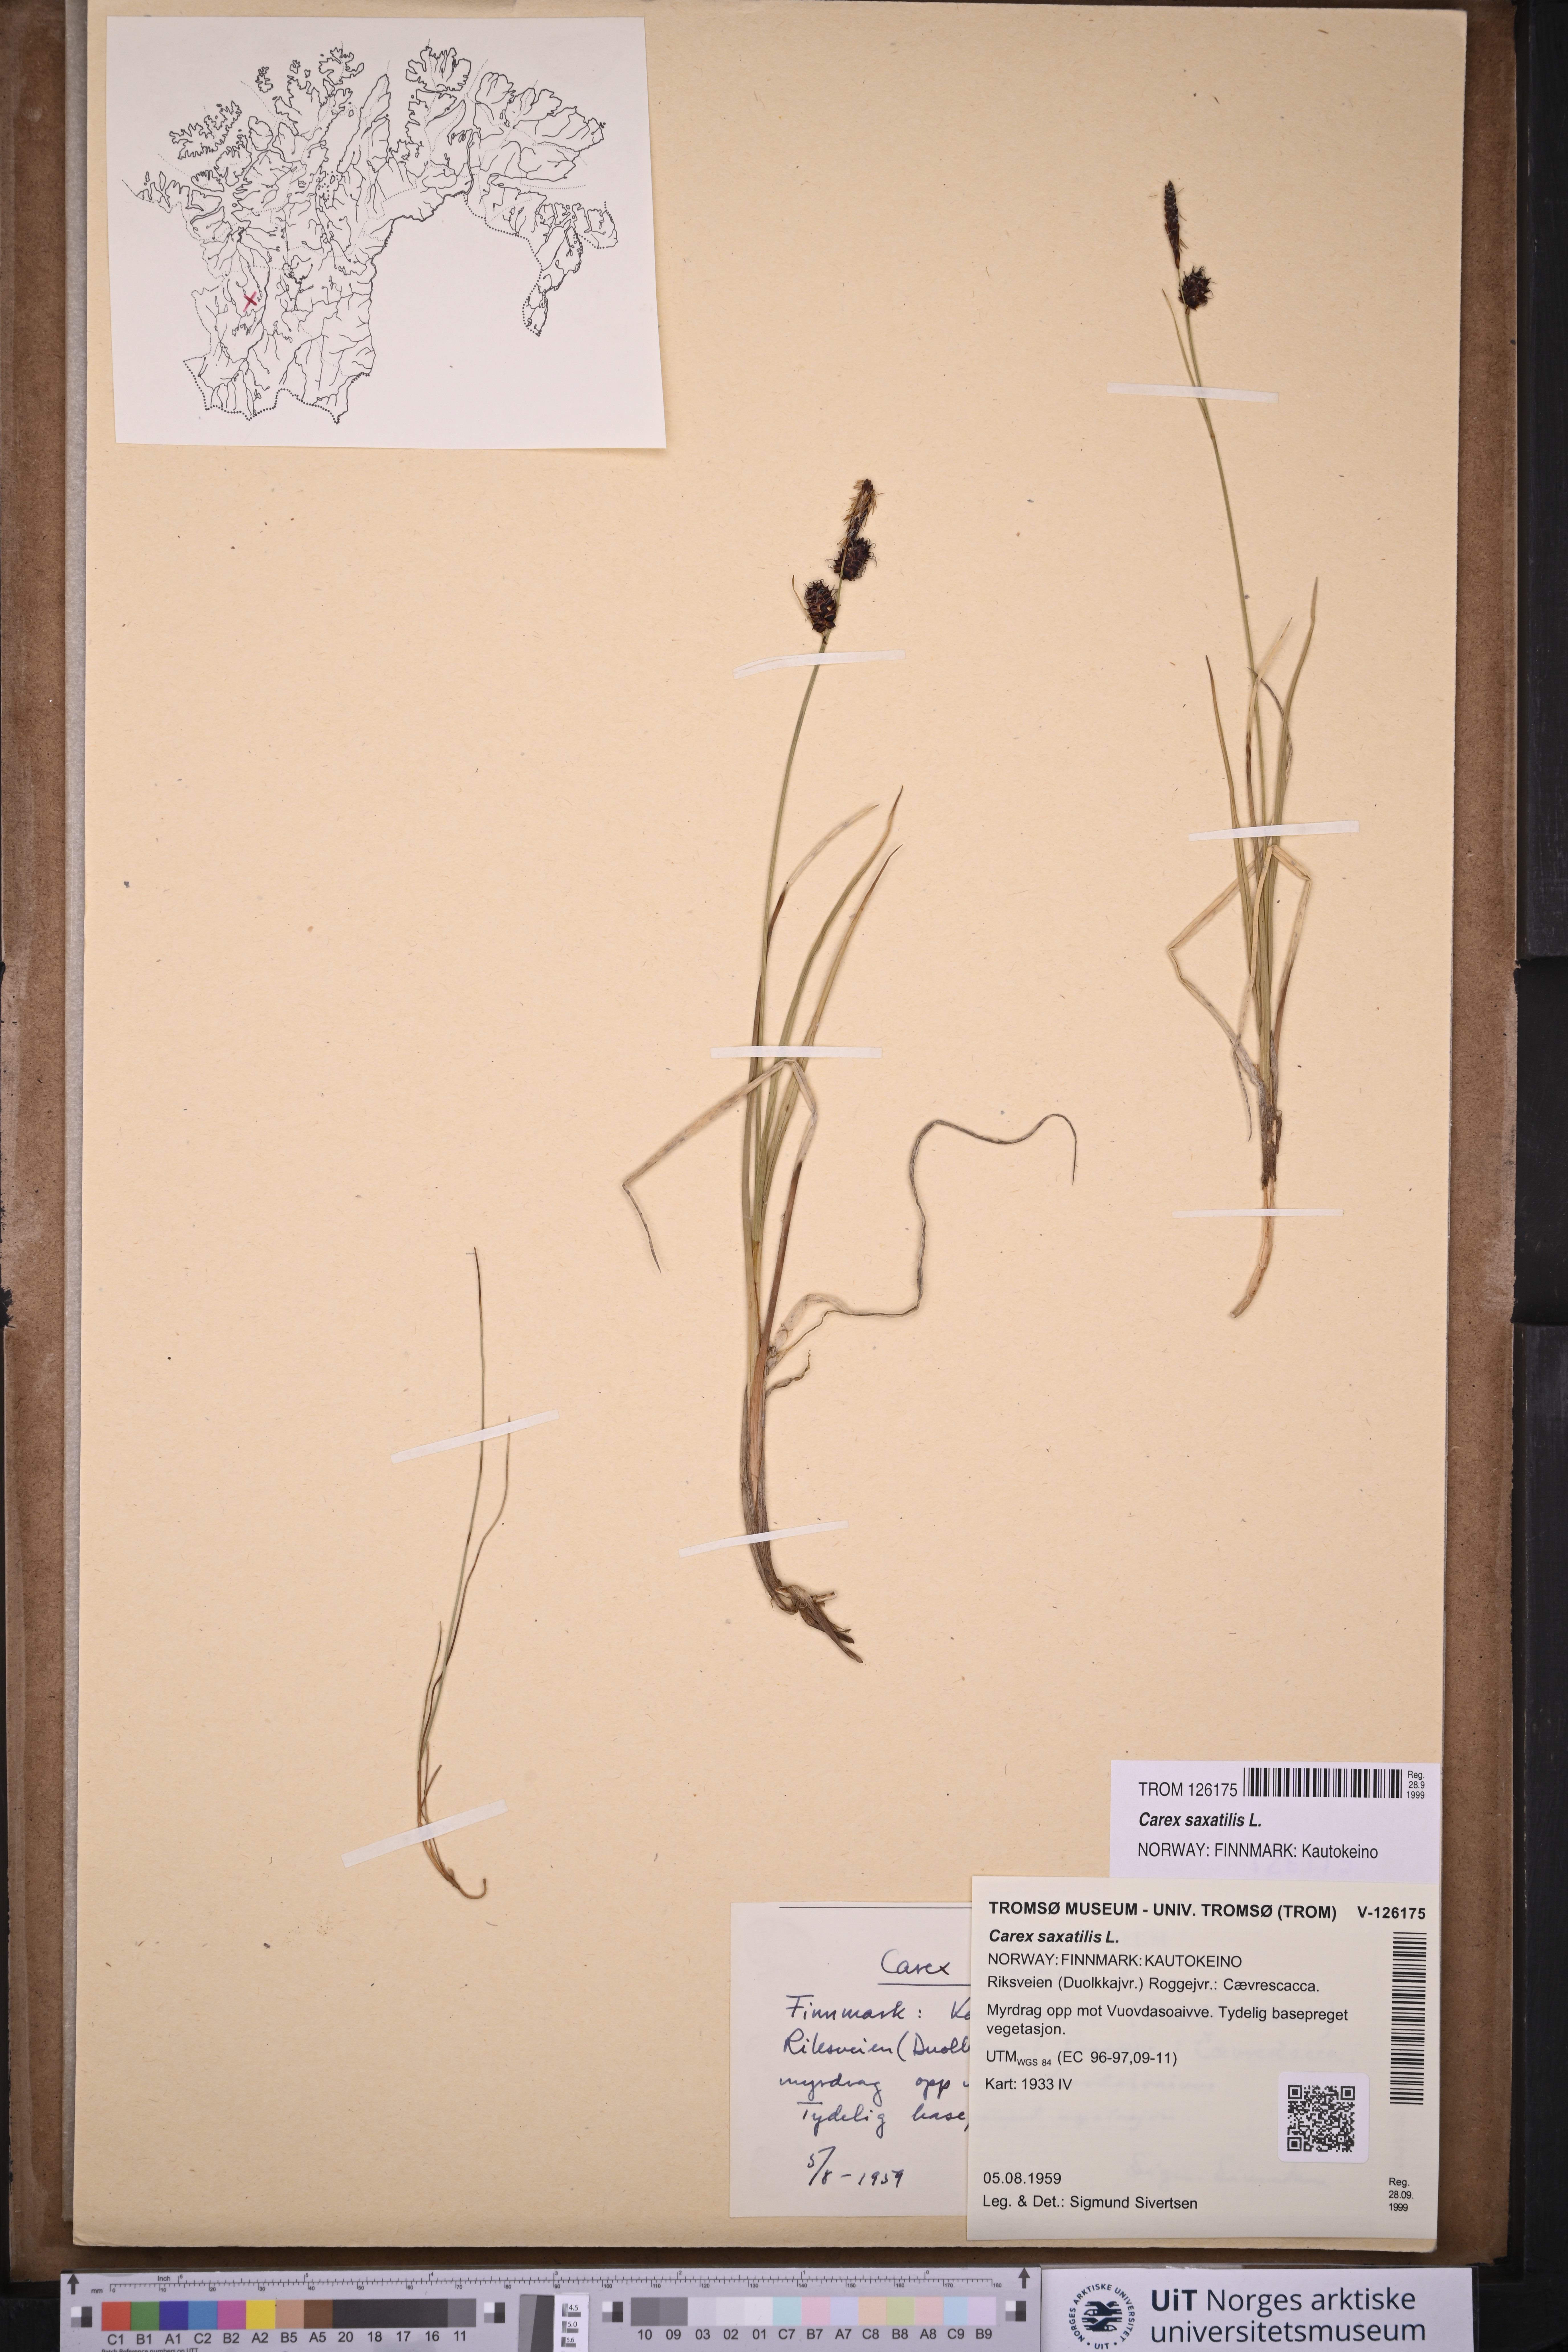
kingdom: Plantae
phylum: Tracheophyta
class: Liliopsida
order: Poales
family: Cyperaceae
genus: Carex
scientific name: Carex saxatilis
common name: Russet sedge
